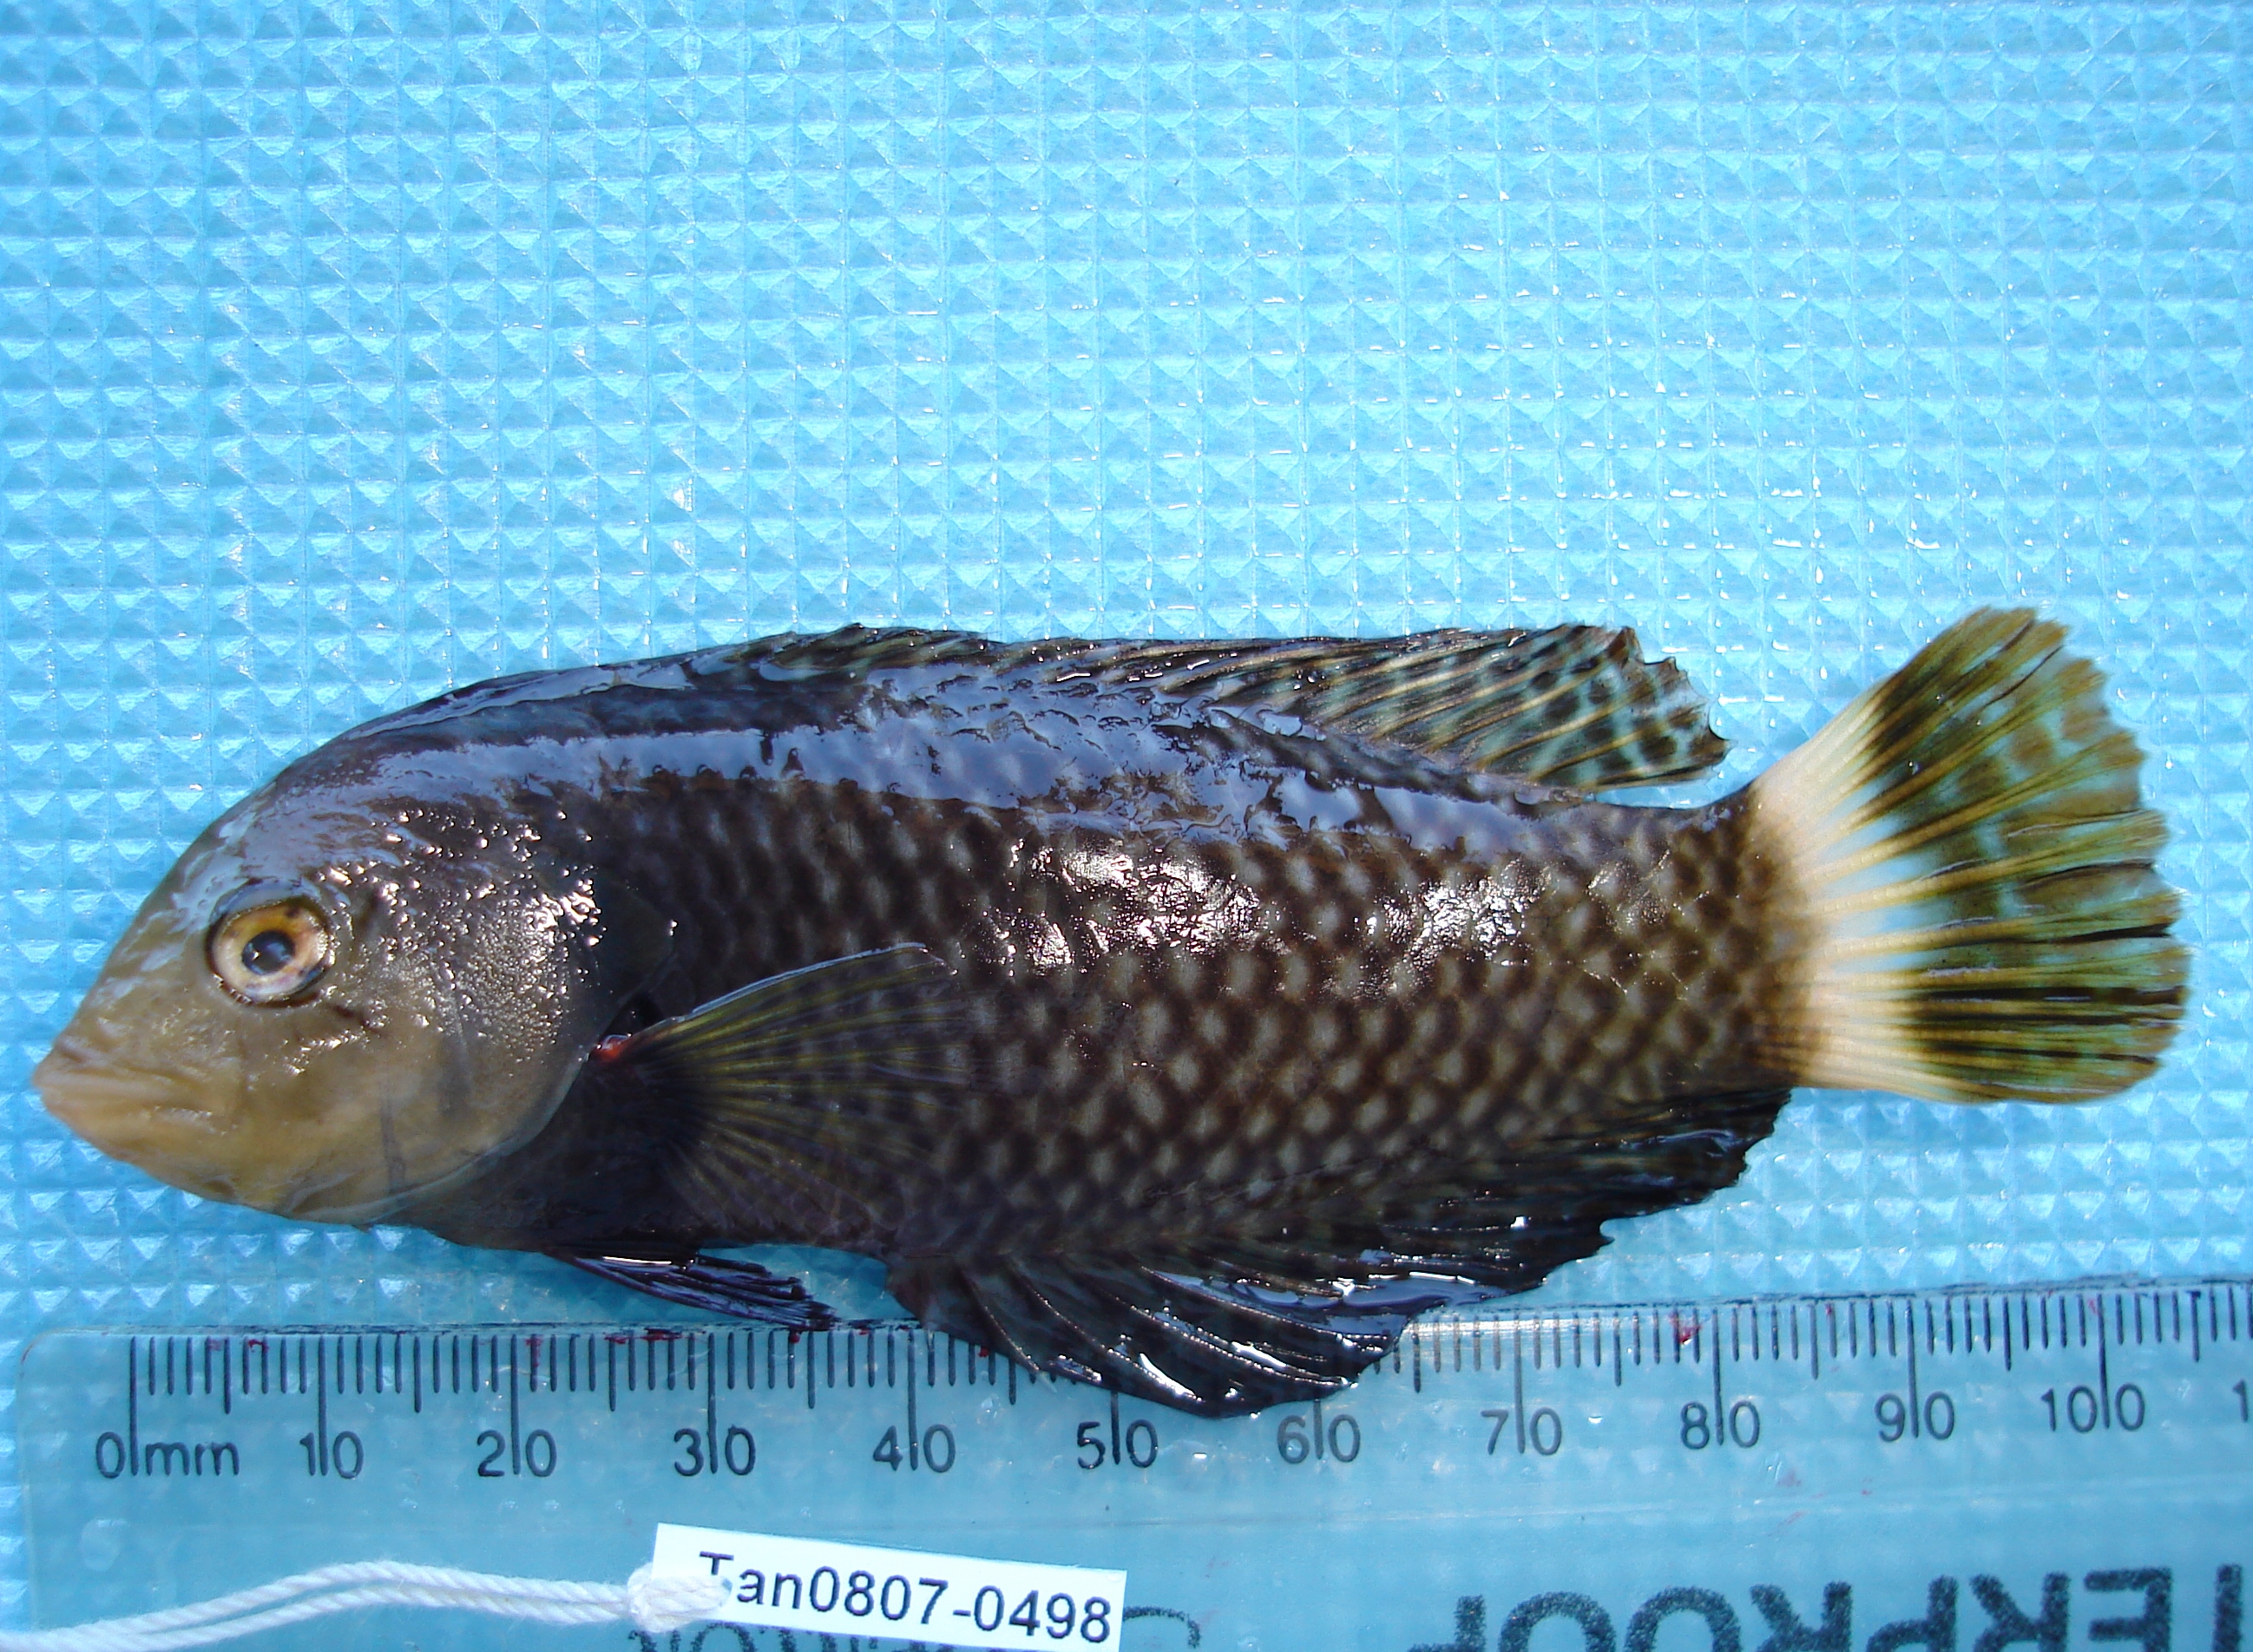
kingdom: Animalia
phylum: Chordata
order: Perciformes
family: Labridae
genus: Novaculichthys
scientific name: Novaculichthys taeniourus
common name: Rockmover wrasse
